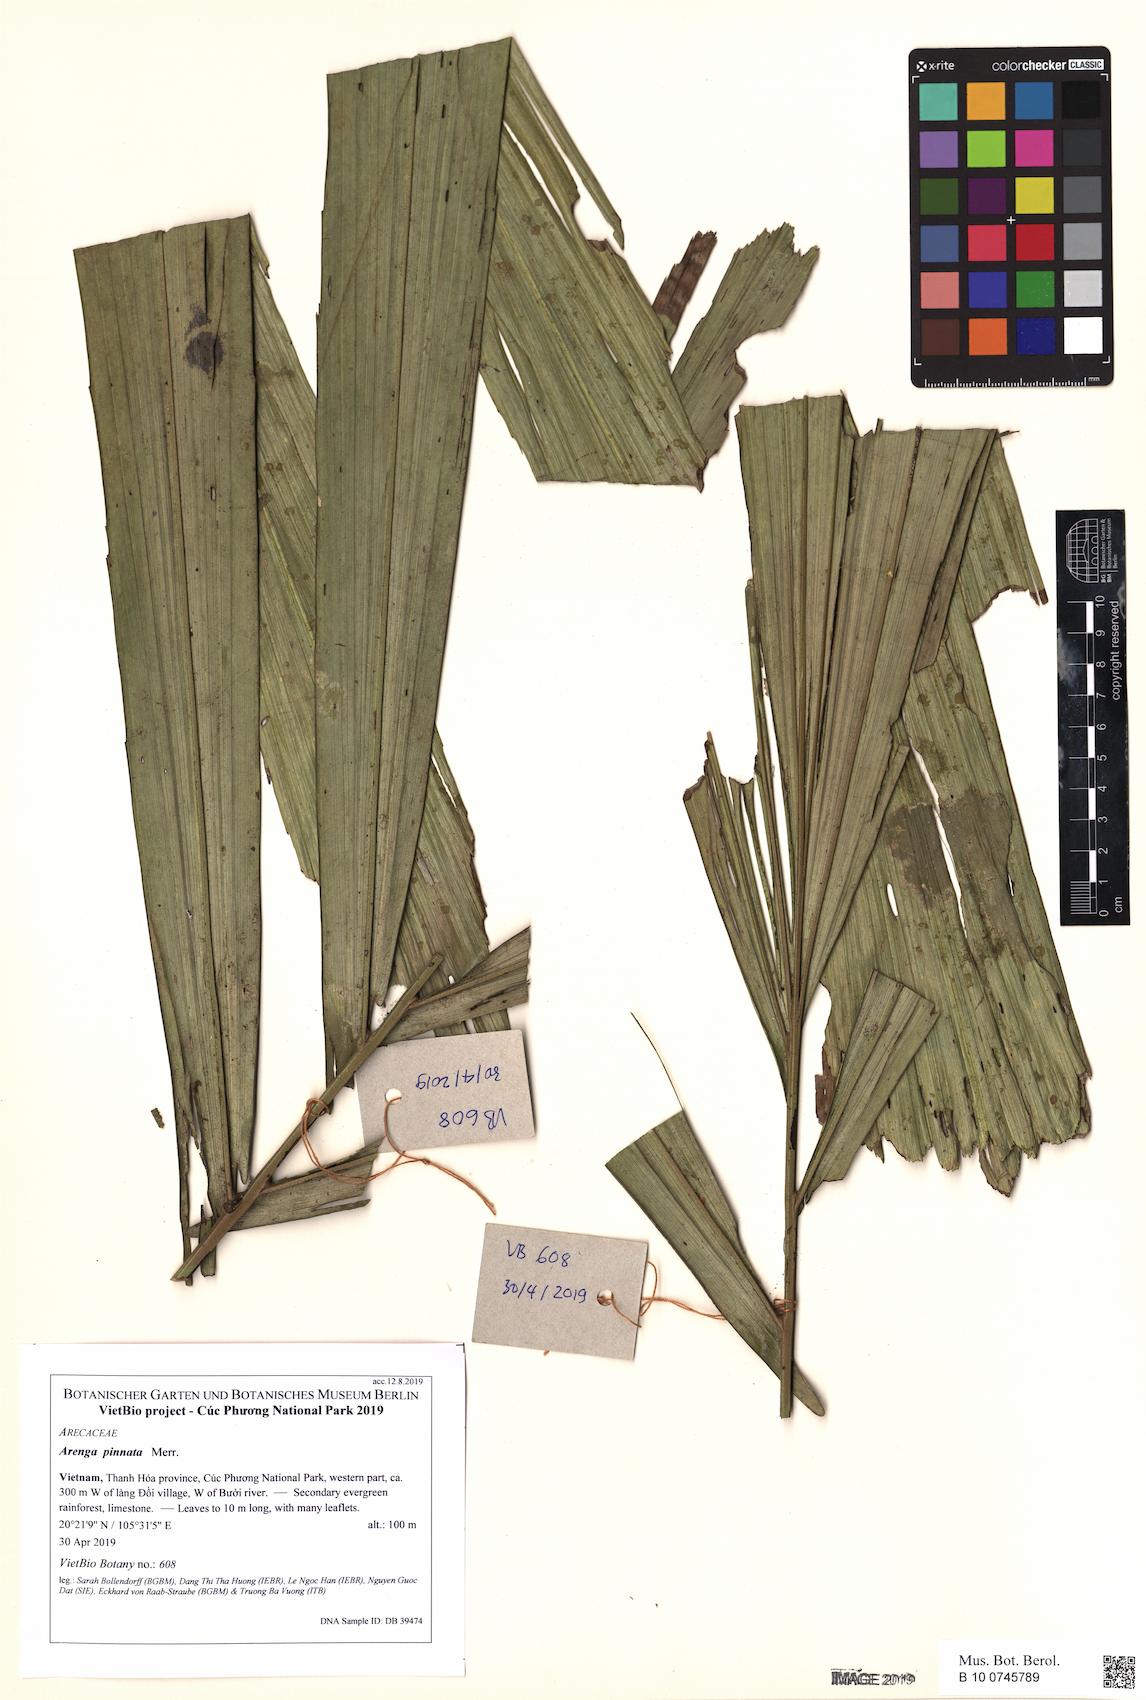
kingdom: Plantae
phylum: Tracheophyta
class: Liliopsida
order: Arecales
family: Arecaceae
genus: Arenga
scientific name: Arenga pinnata
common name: Black-fiber palm
